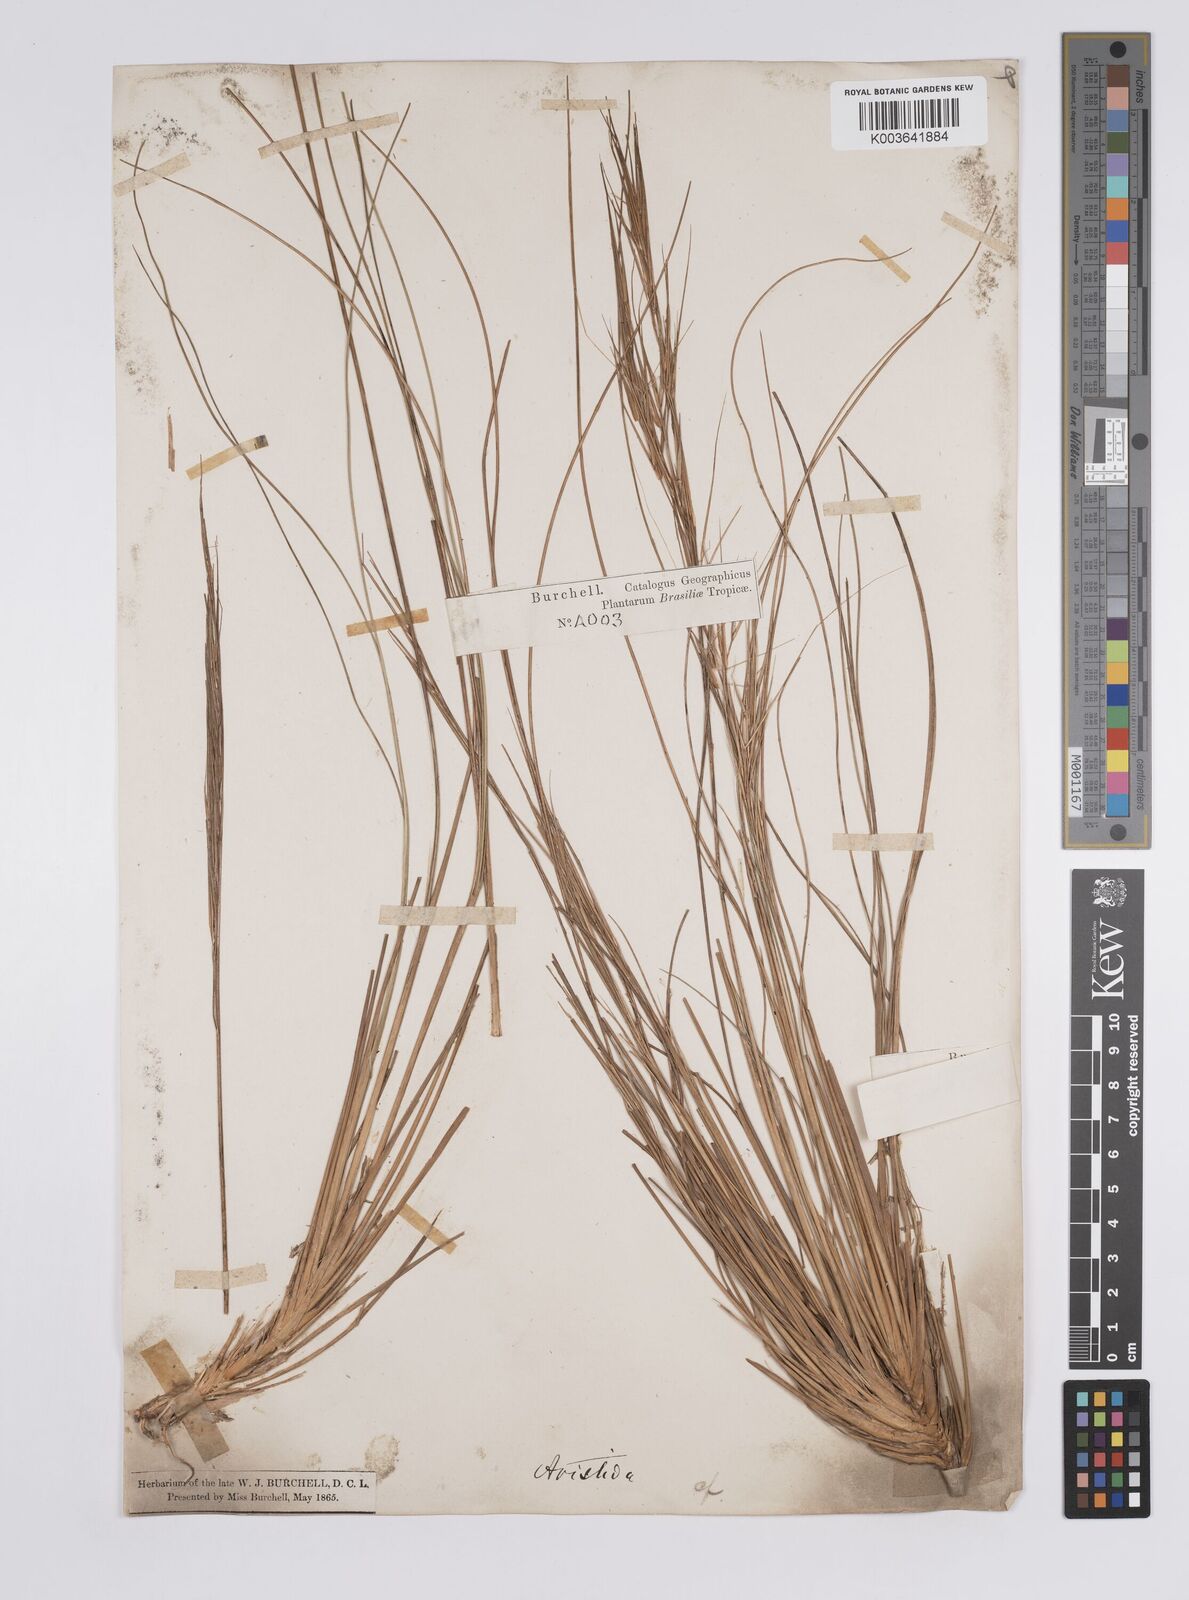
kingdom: Plantae
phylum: Tracheophyta
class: Liliopsida
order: Poales
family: Poaceae
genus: Aristida
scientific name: Aristida pallens
